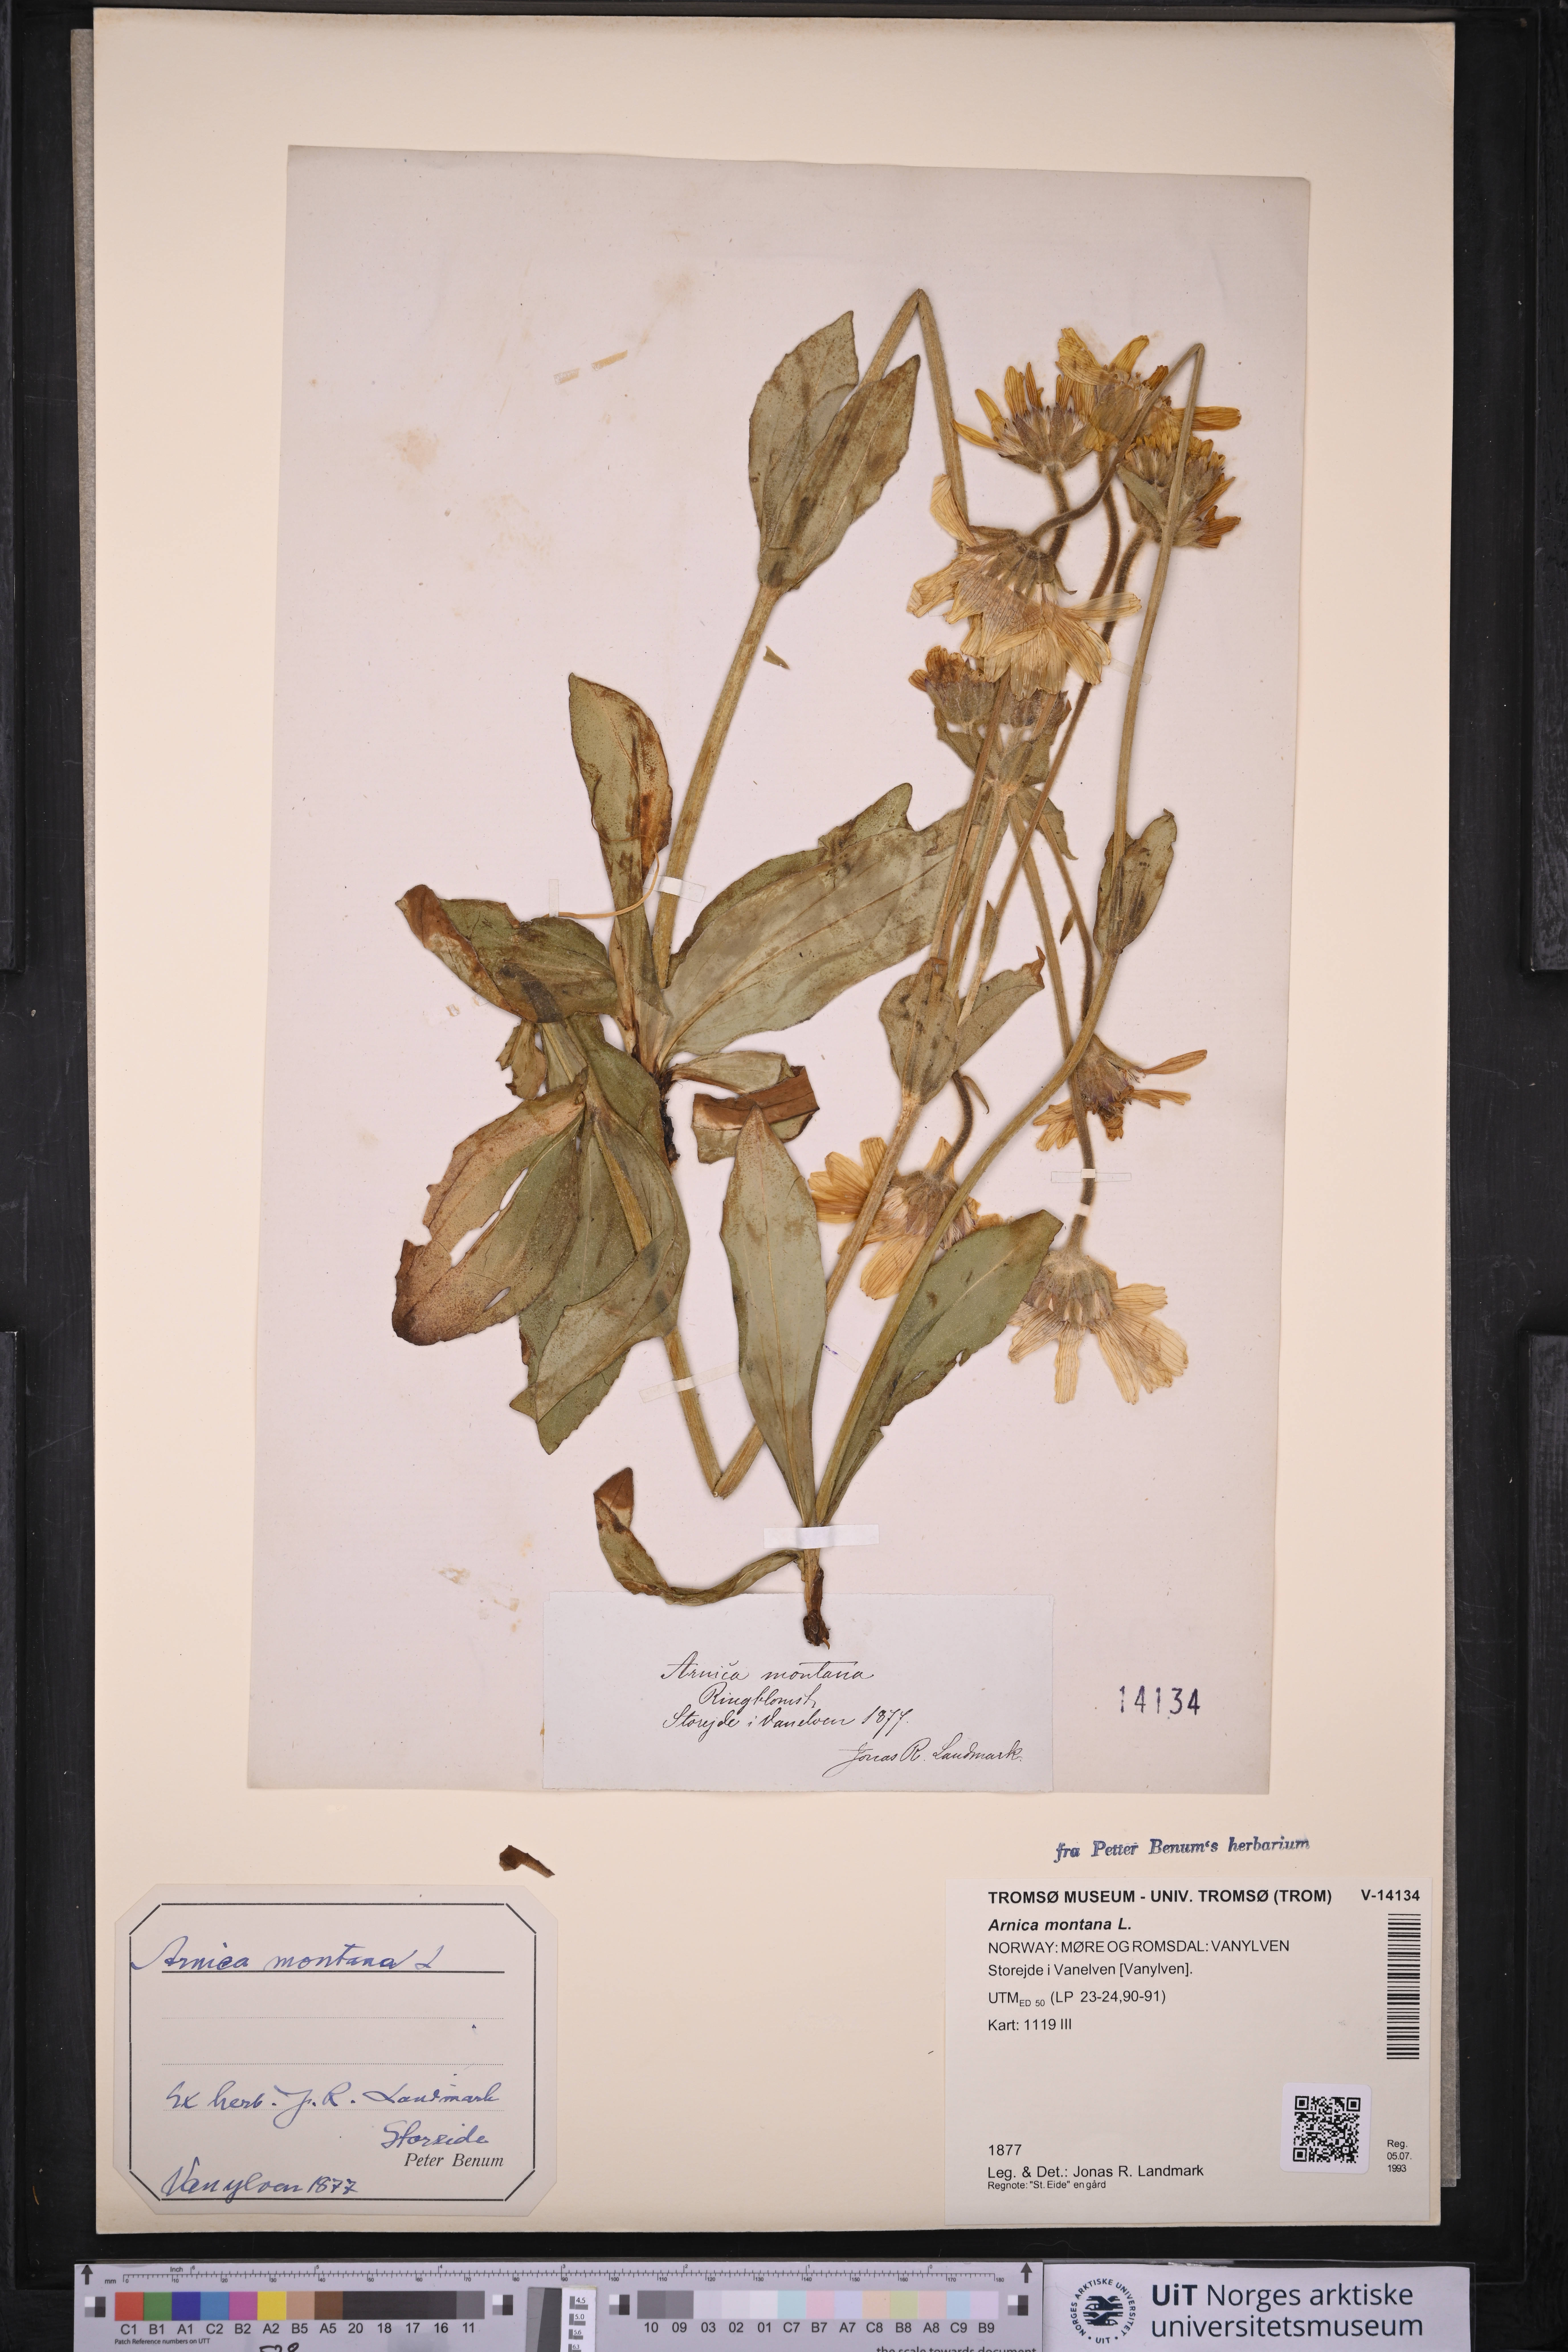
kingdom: Plantae
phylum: Tracheophyta
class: Magnoliopsida
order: Asterales
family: Asteraceae
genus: Arnica
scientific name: Arnica montana
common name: Leopard's bane
